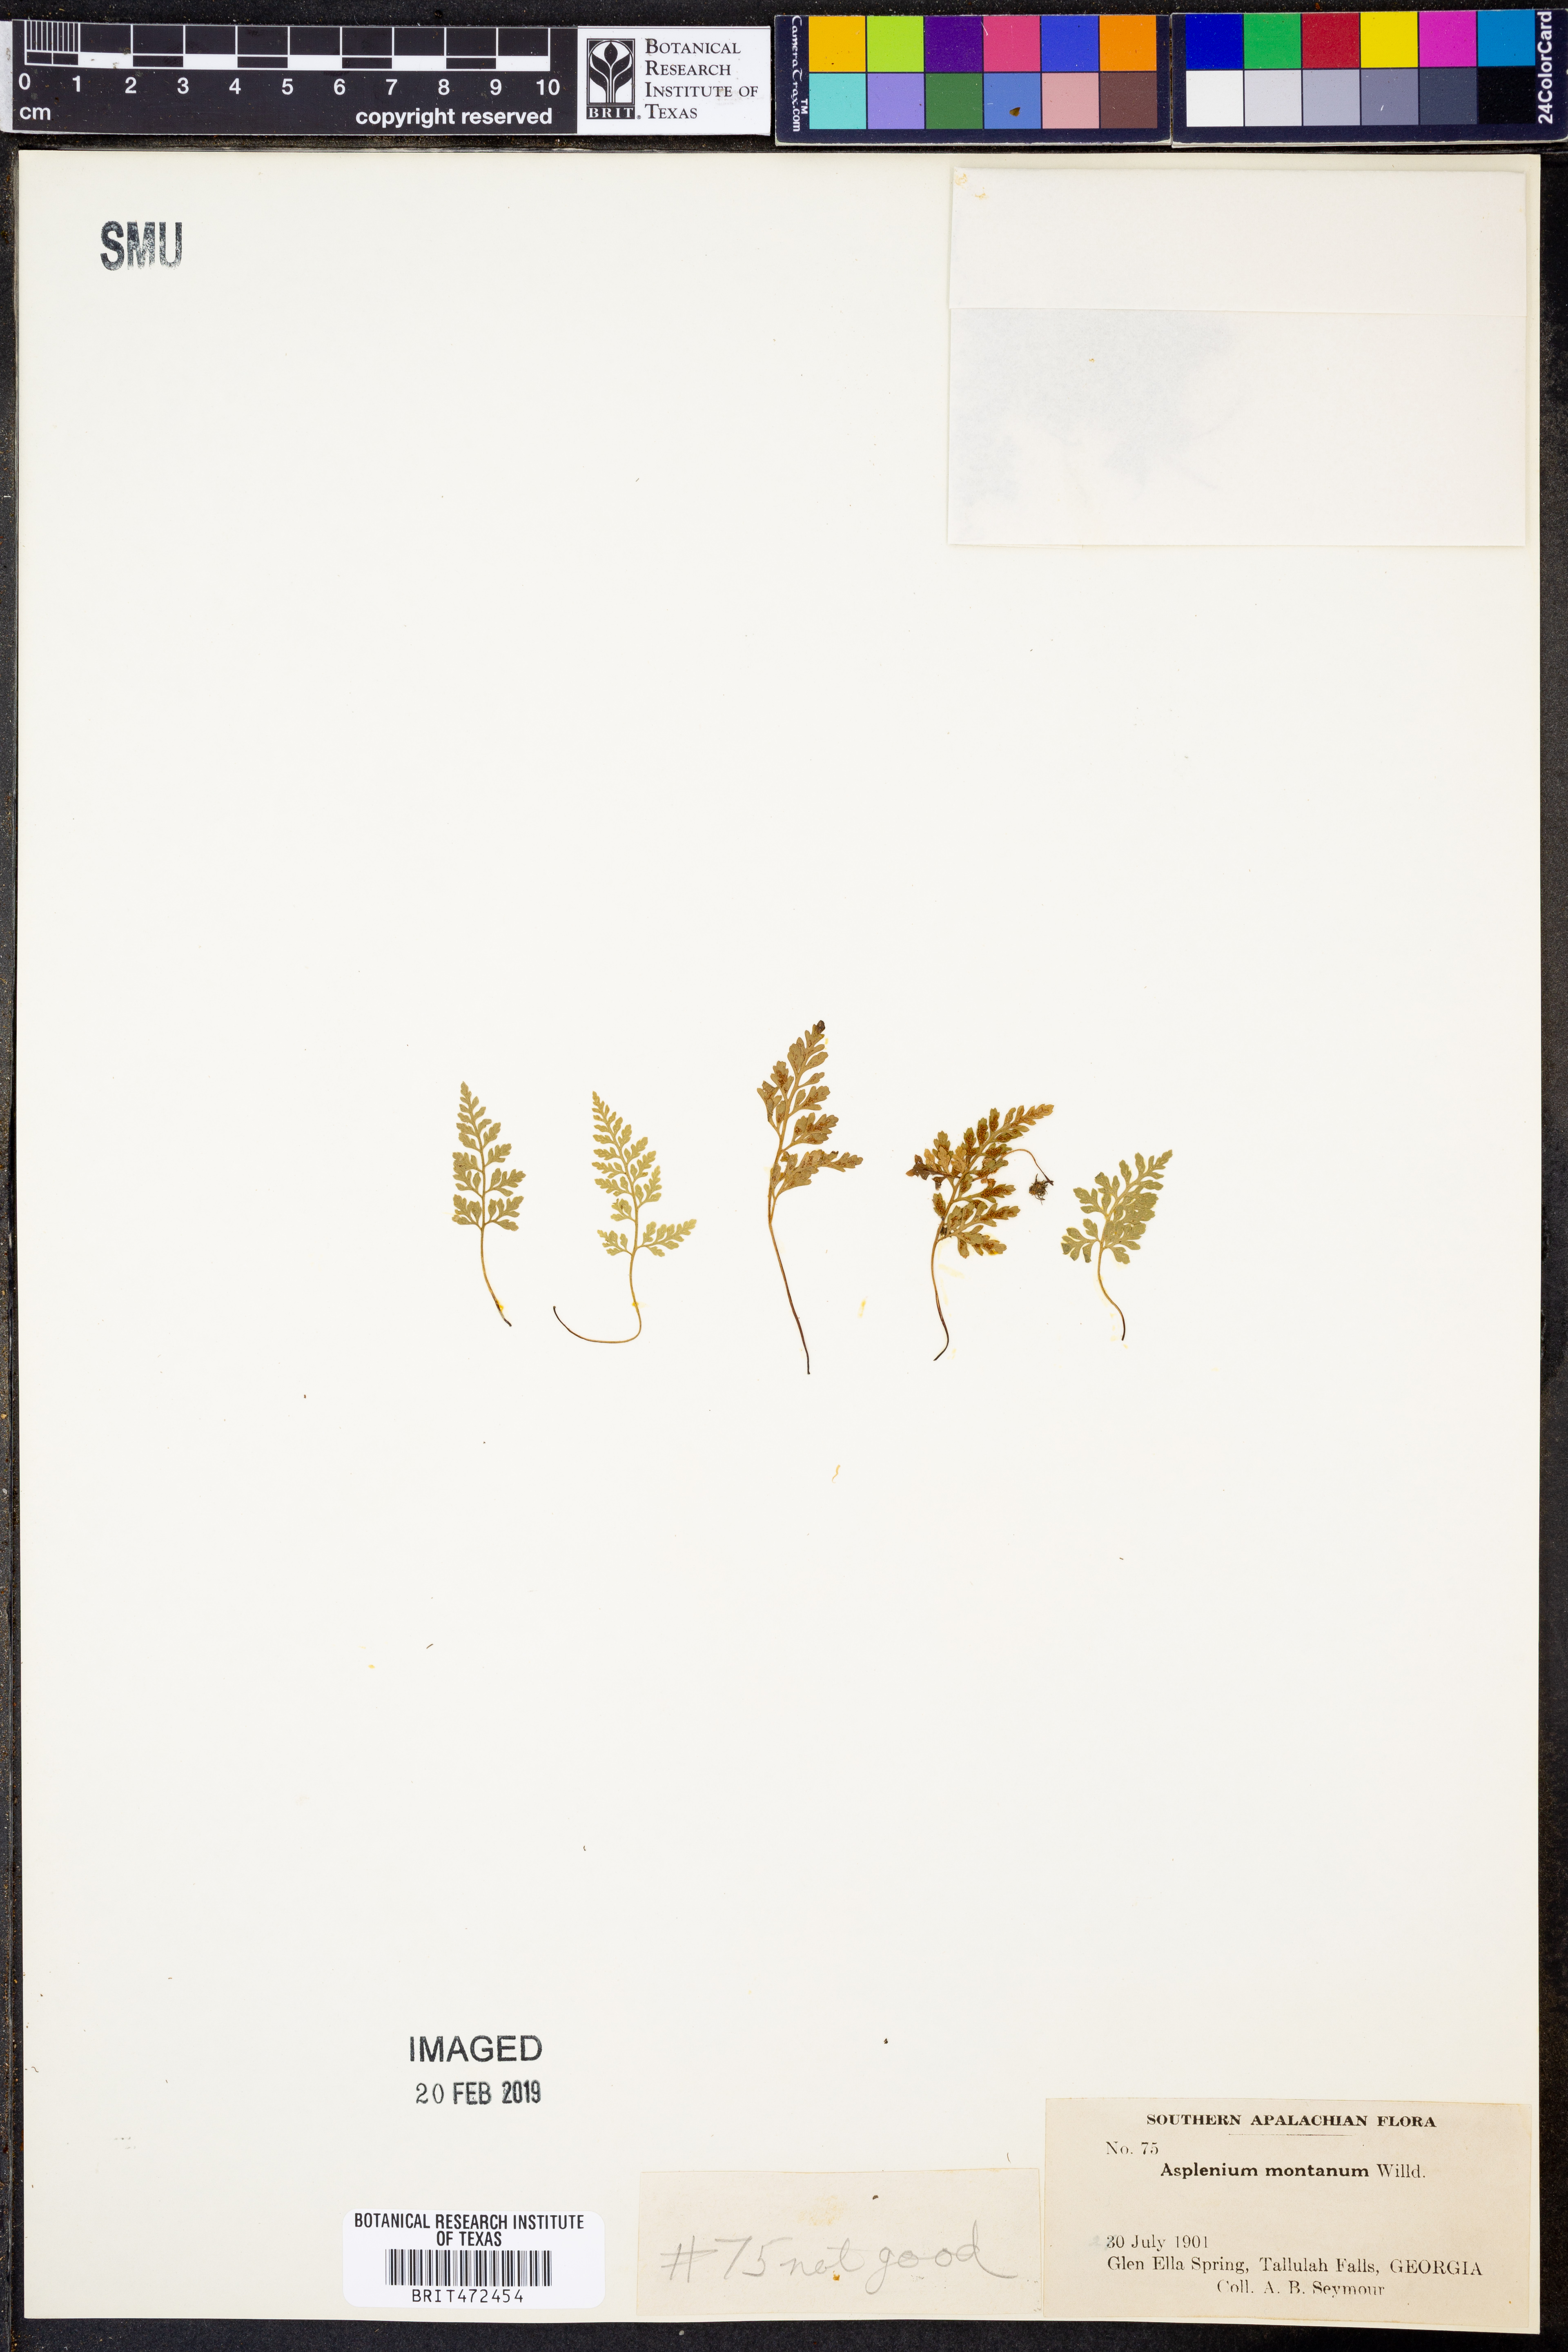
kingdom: Plantae
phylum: Tracheophyta
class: Polypodiopsida
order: Polypodiales
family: Aspleniaceae
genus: Asplenium
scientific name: Asplenium montanum
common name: Mountain spleenwort
